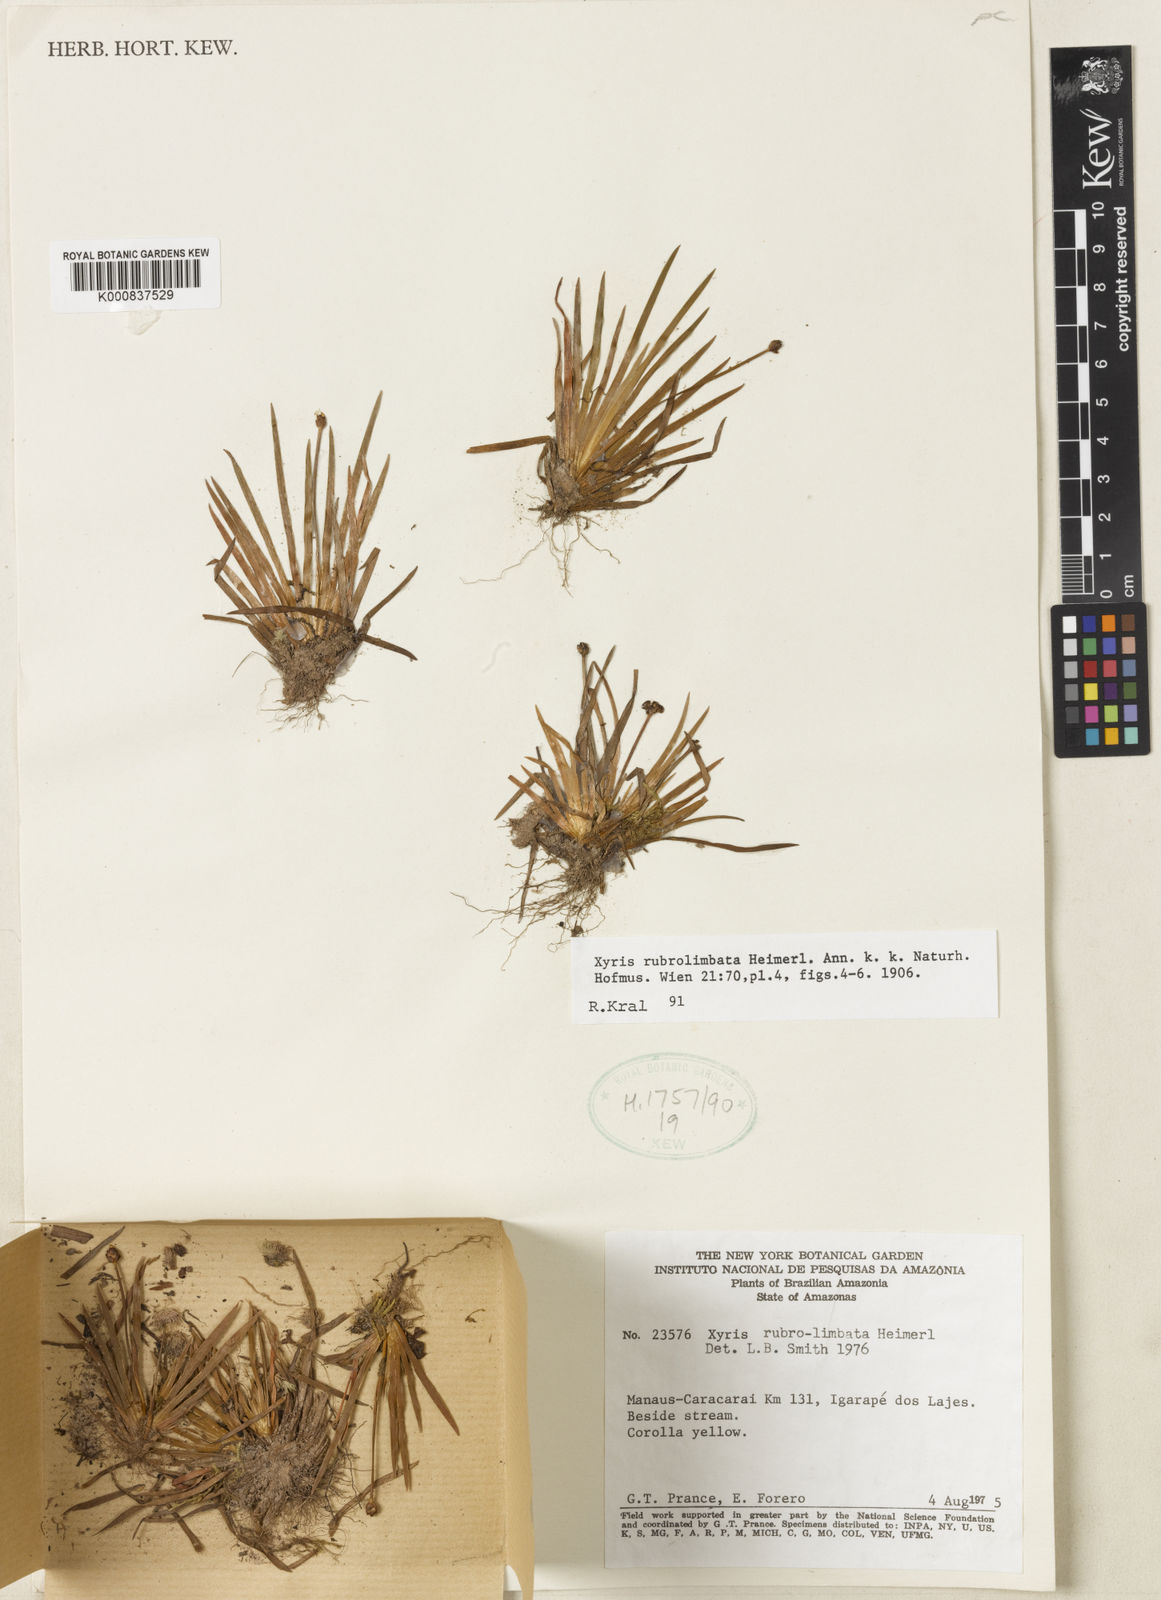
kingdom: Plantae
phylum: Tracheophyta
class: Liliopsida
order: Poales
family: Xyridaceae
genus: Xyris
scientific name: Xyris rubrolimbata
